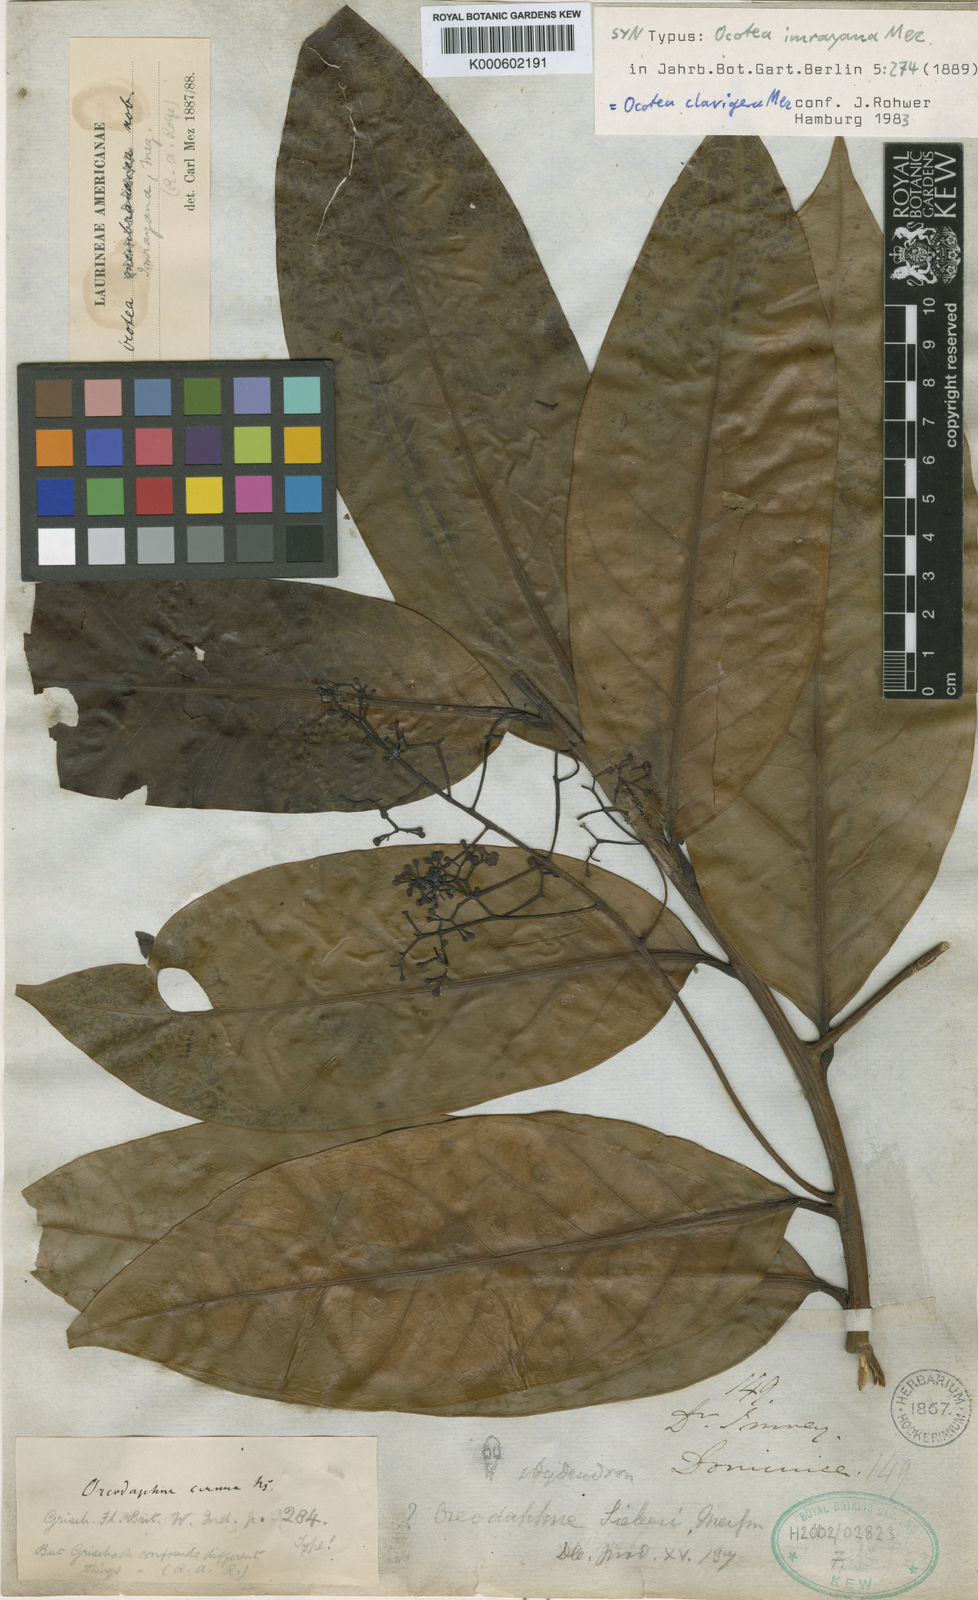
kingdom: Plantae
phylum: Tracheophyta
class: Magnoliopsida
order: Laurales
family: Lauraceae
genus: Ocotea
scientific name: Ocotea imrayana
